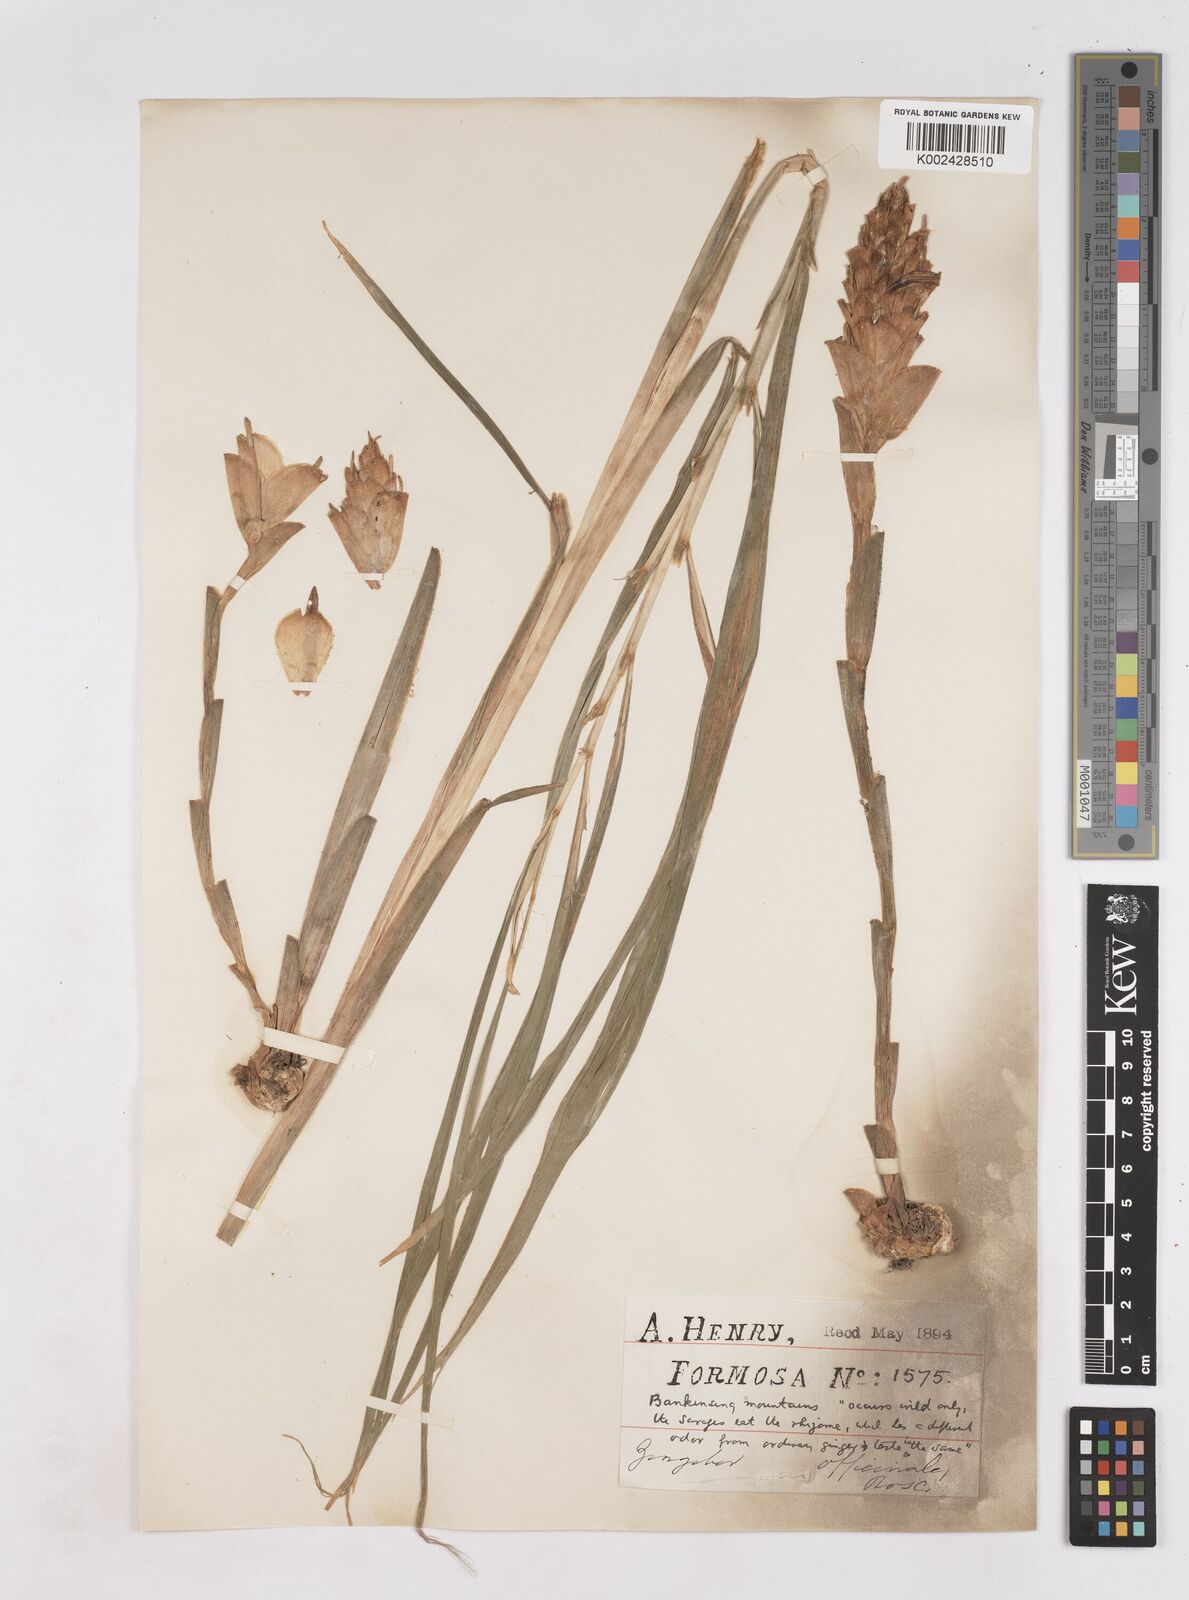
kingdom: Plantae
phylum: Tracheophyta
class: Liliopsida
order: Zingiberales
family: Zingiberaceae
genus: Zingiber
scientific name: Zingiber officinale
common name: Ginger
